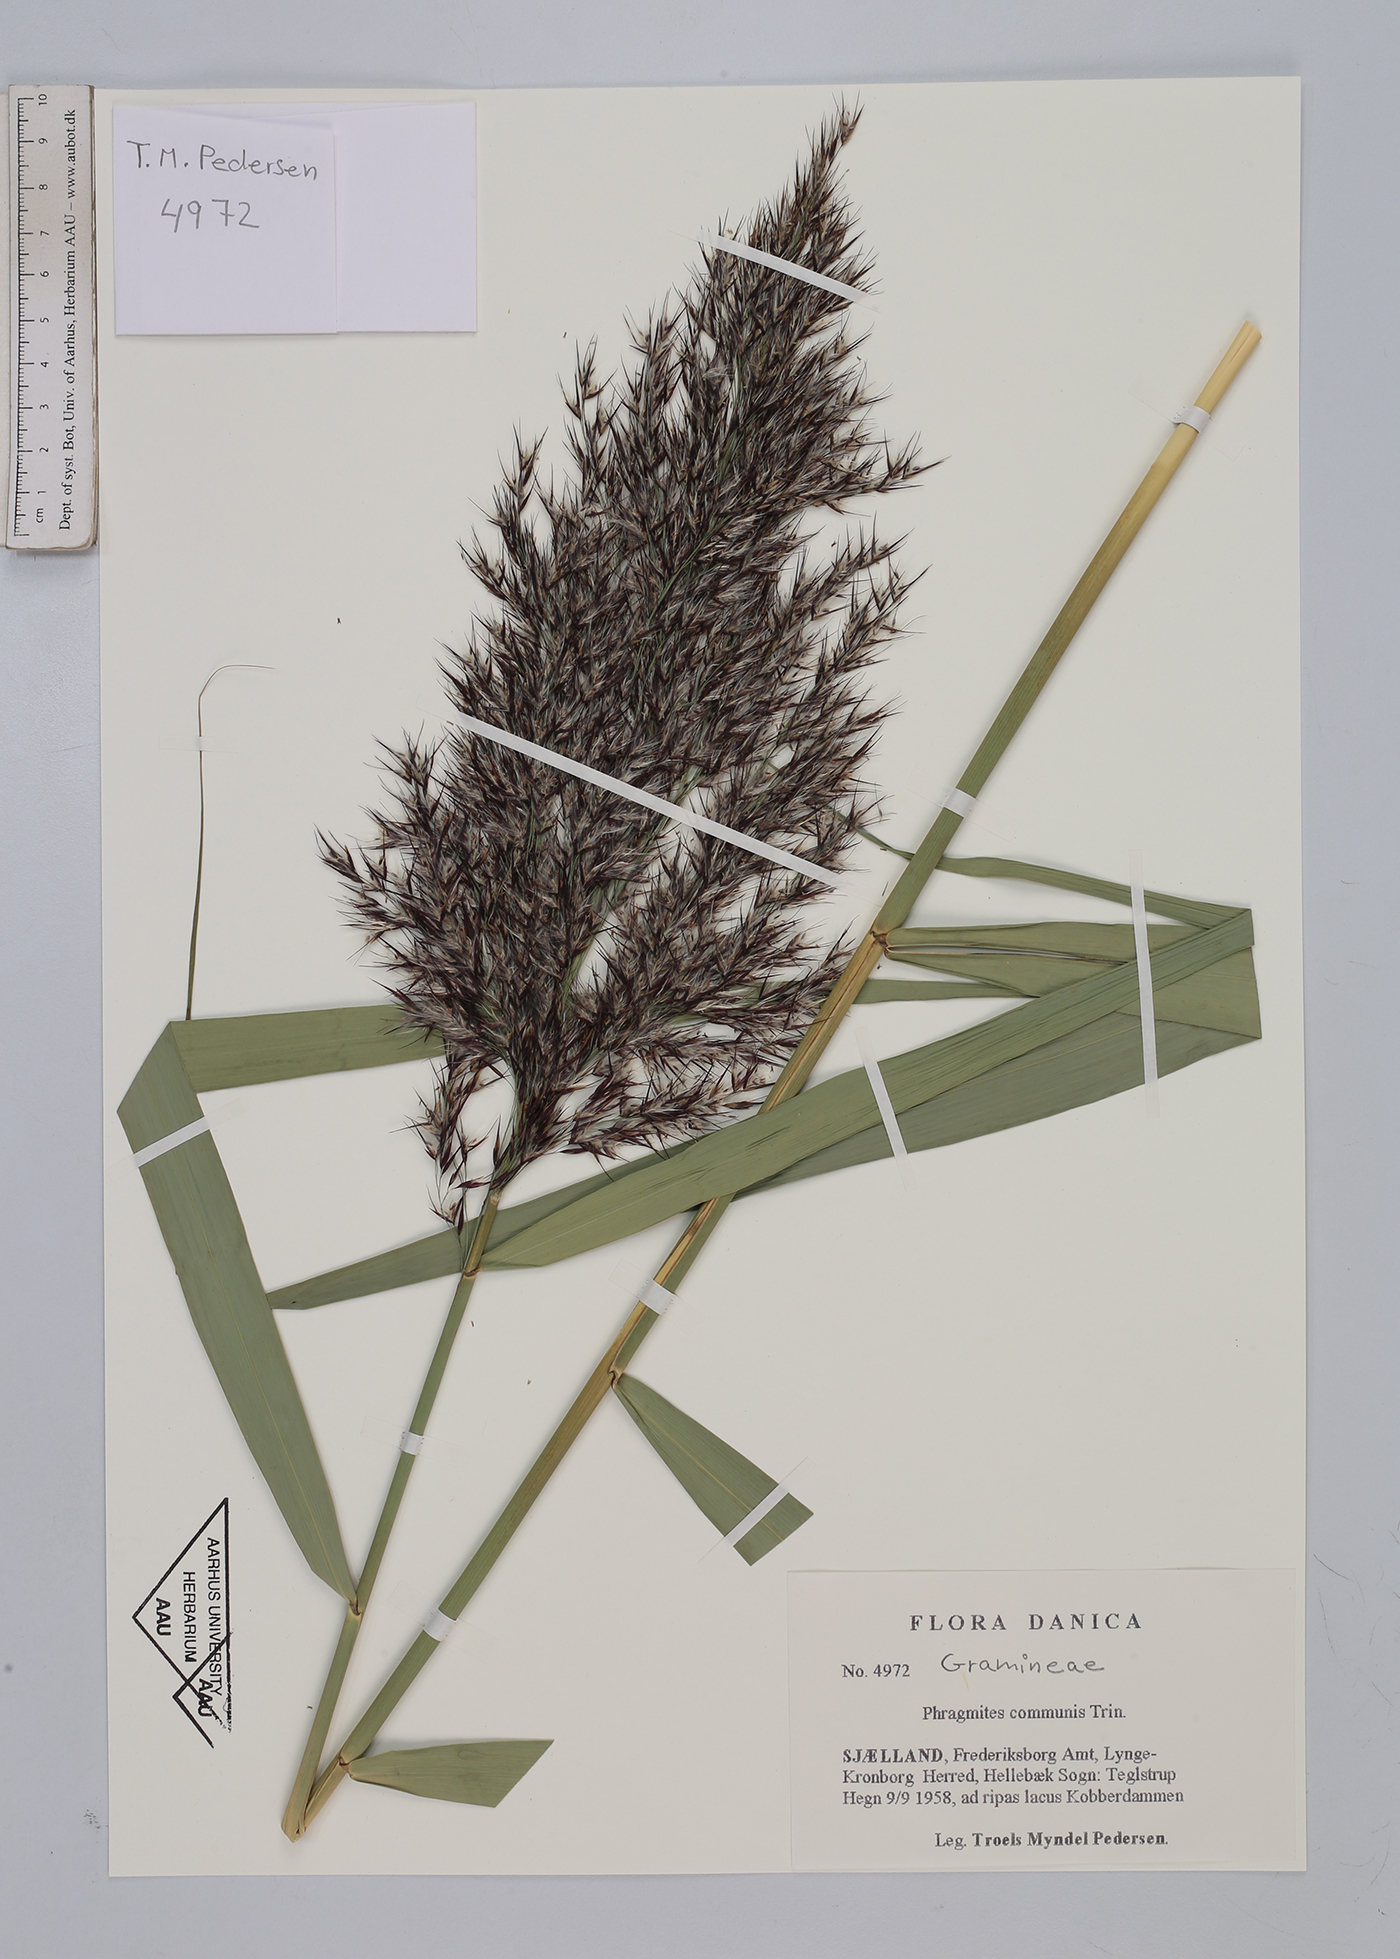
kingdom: Plantae
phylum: Tracheophyta
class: Liliopsida
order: Poales
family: Poaceae
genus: Phragmites
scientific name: Phragmites australis
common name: Common reed
